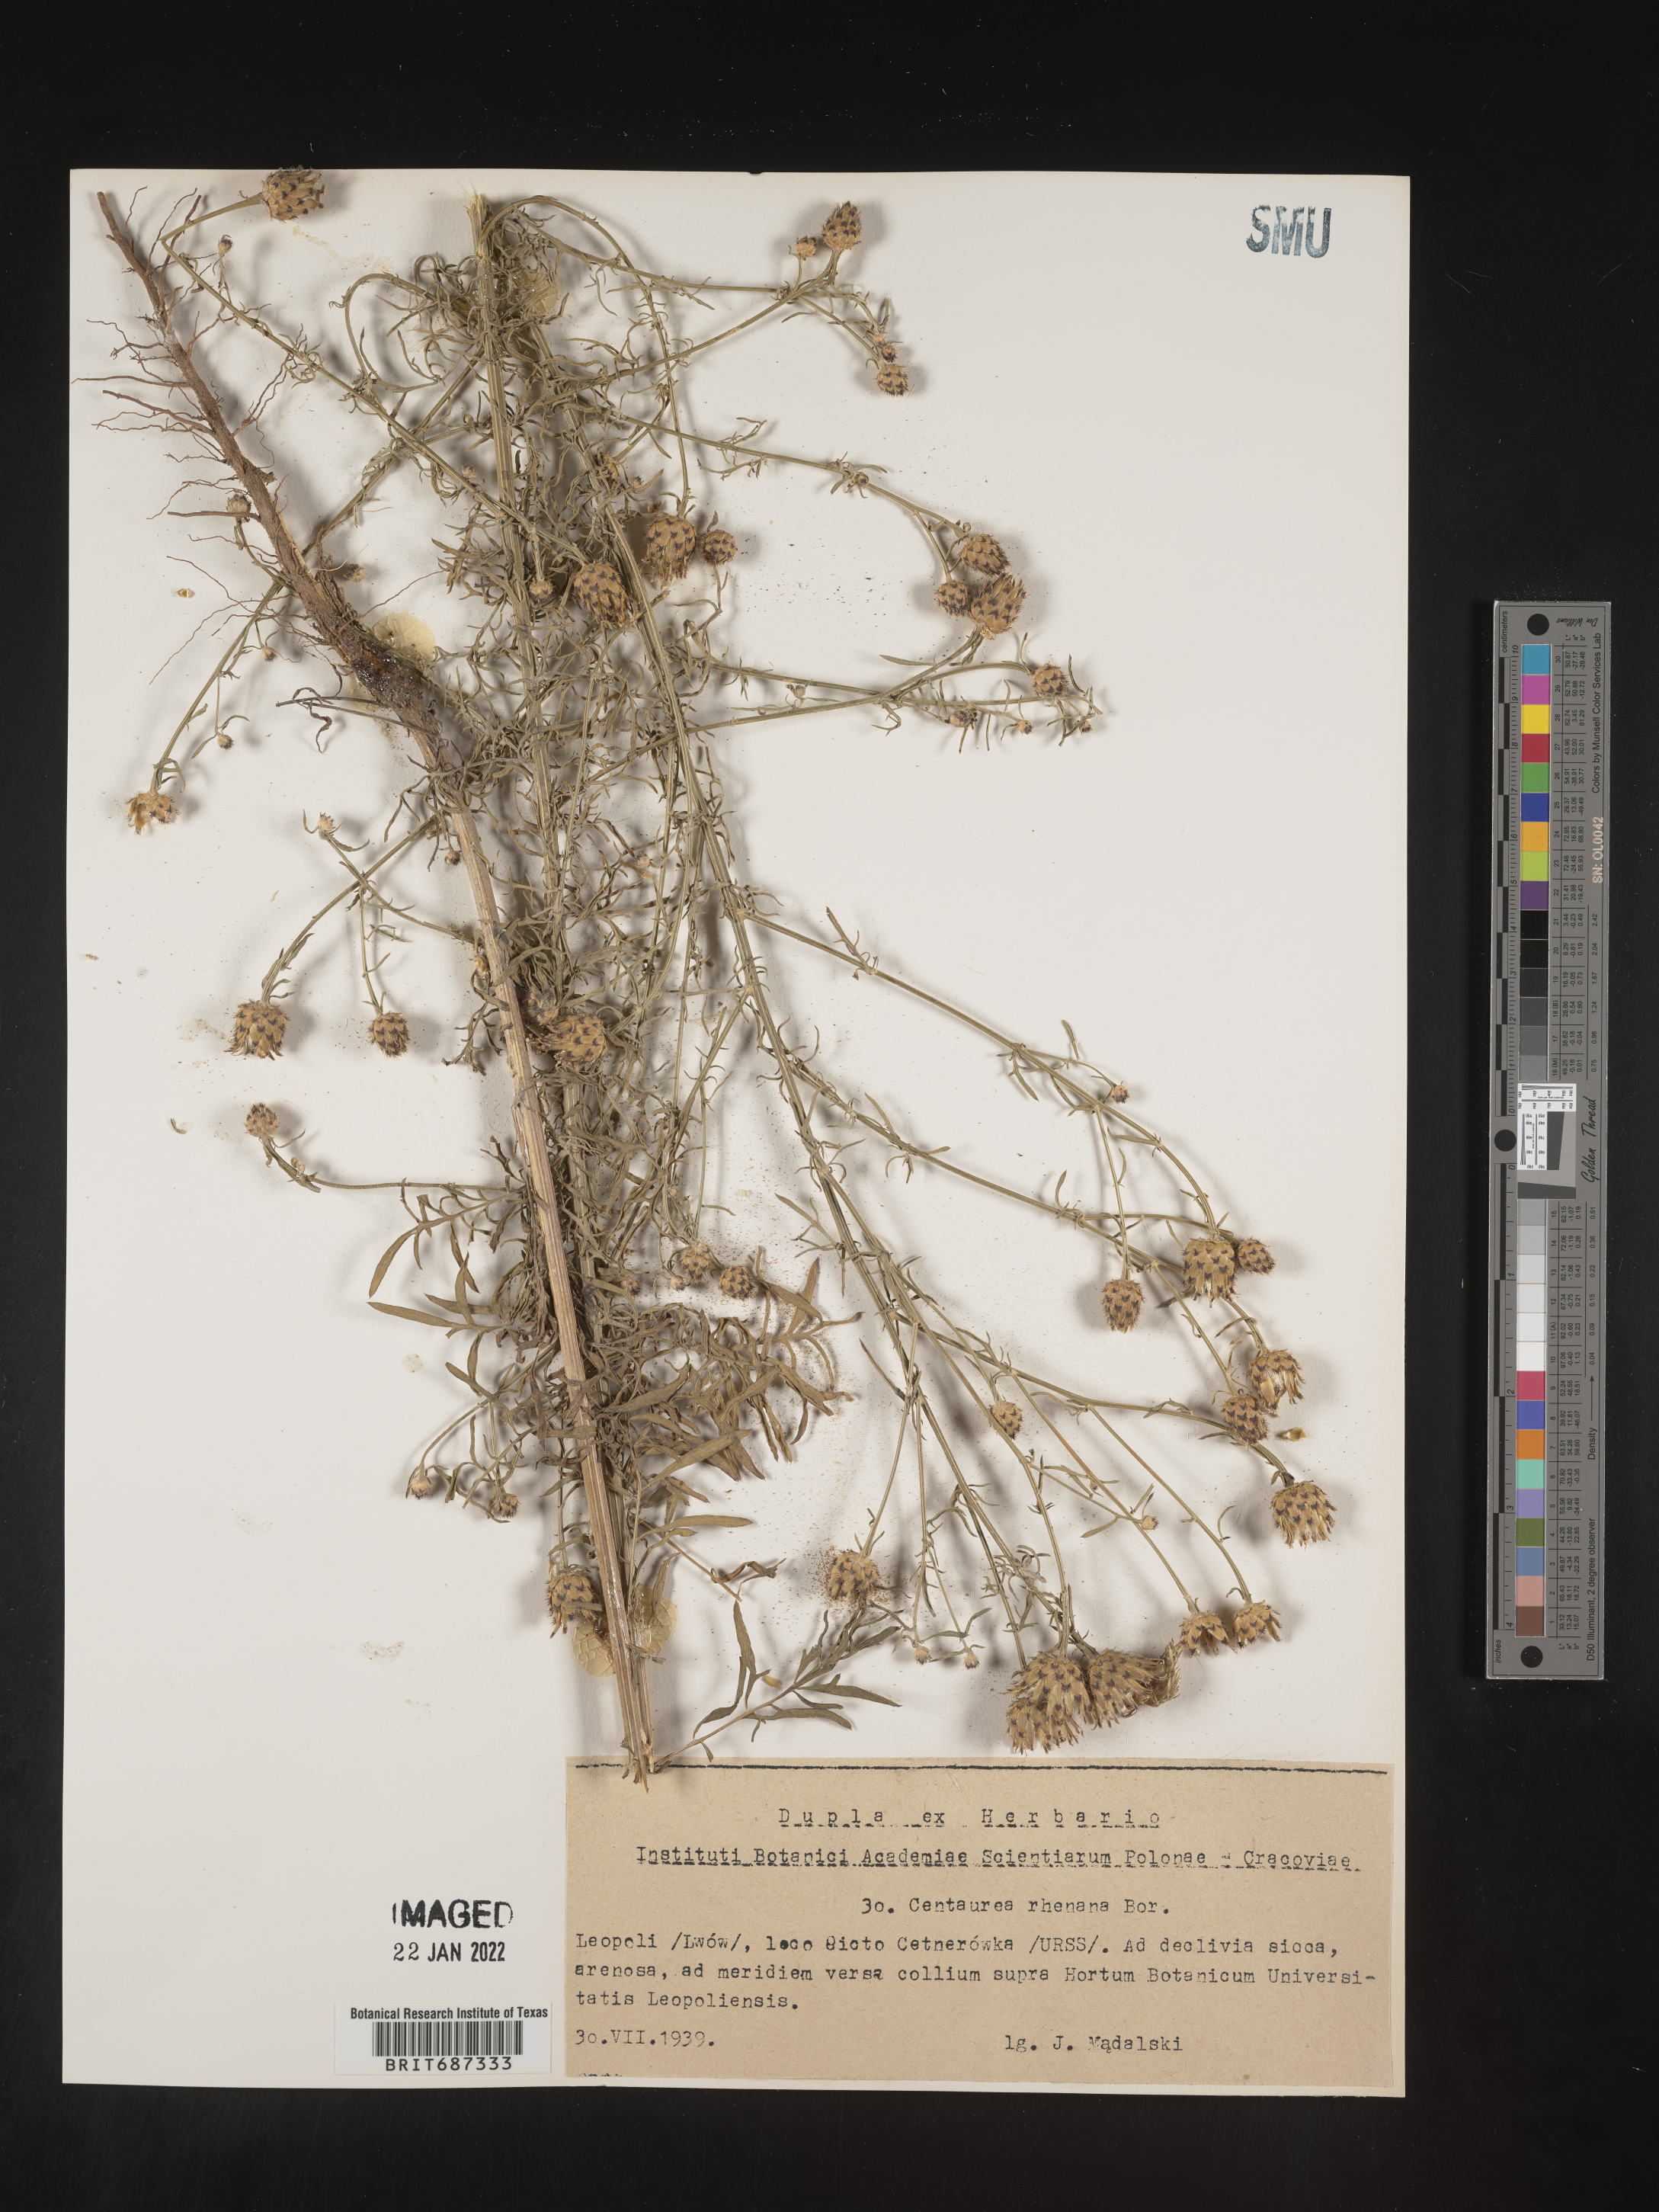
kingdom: Plantae
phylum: Tracheophyta
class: Magnoliopsida
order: Asterales
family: Asteraceae
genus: Centaurea
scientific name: Centaurea
